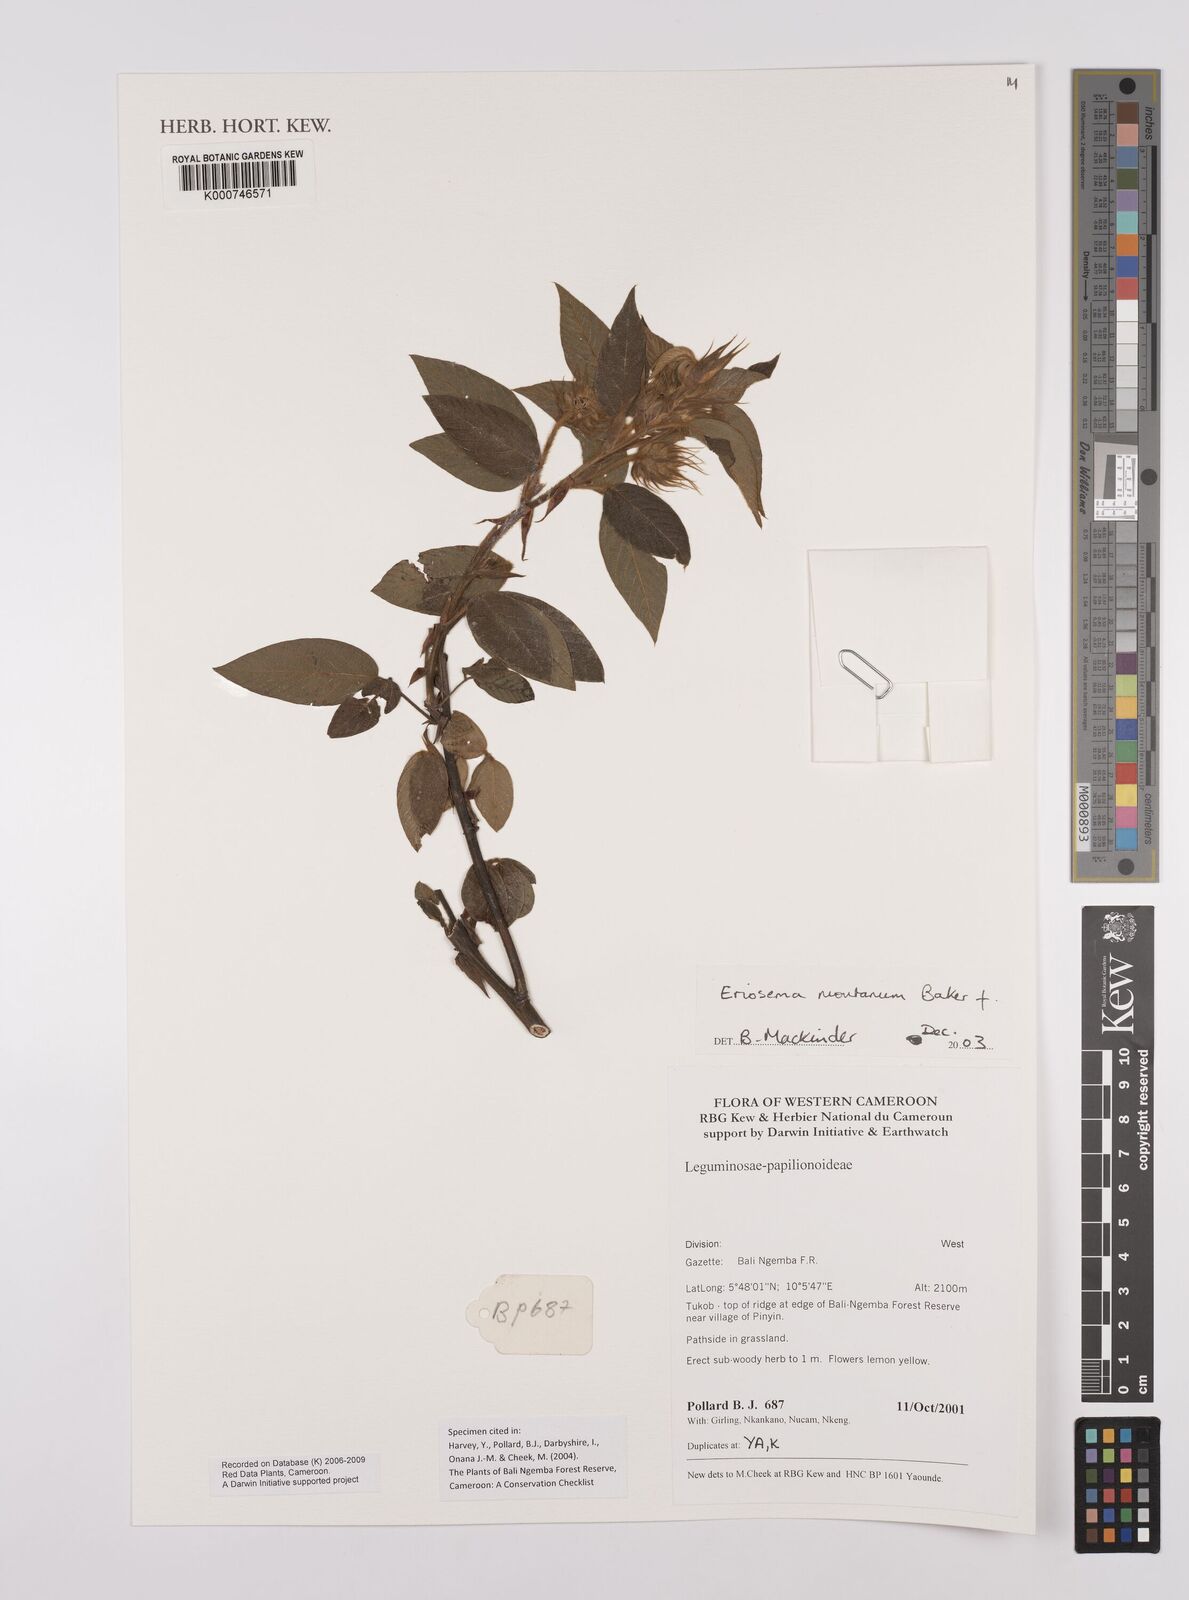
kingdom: Plantae
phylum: Tracheophyta
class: Magnoliopsida
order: Fabales
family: Fabaceae
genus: Eriosema
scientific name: Eriosema montanum
